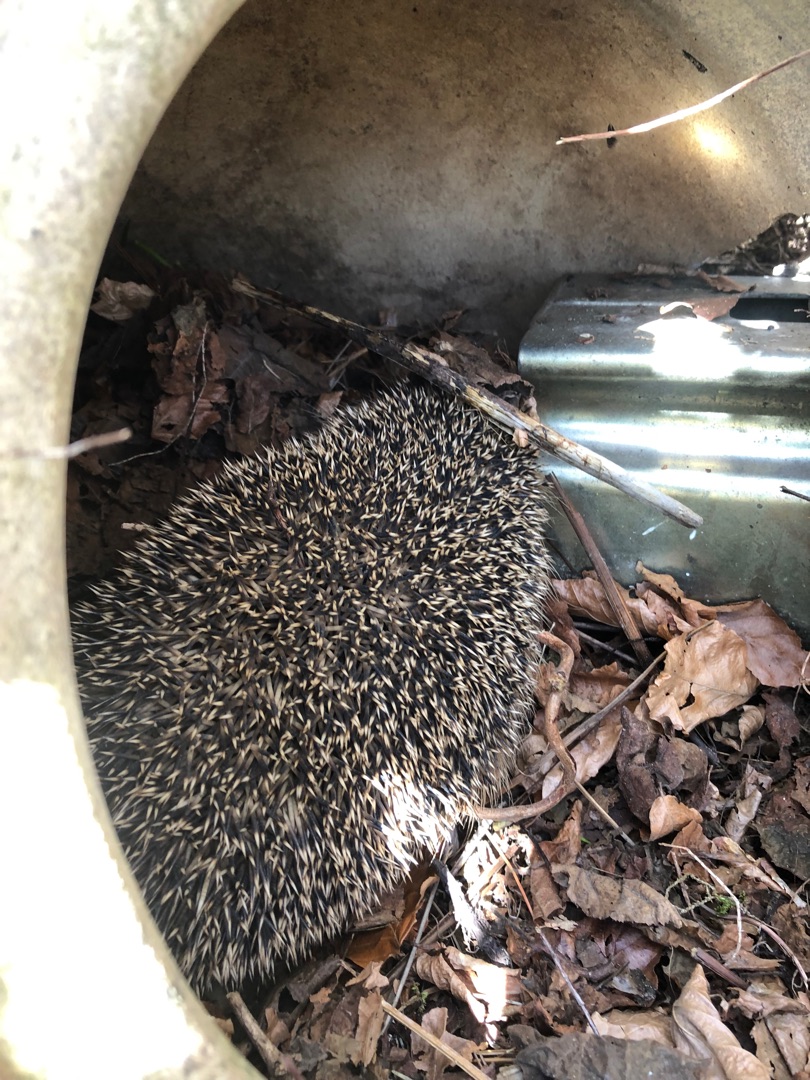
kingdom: Animalia
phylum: Chordata
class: Mammalia
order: Erinaceomorpha
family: Erinaceidae
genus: Erinaceus
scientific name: Erinaceus europaeus
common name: Pindsvin
